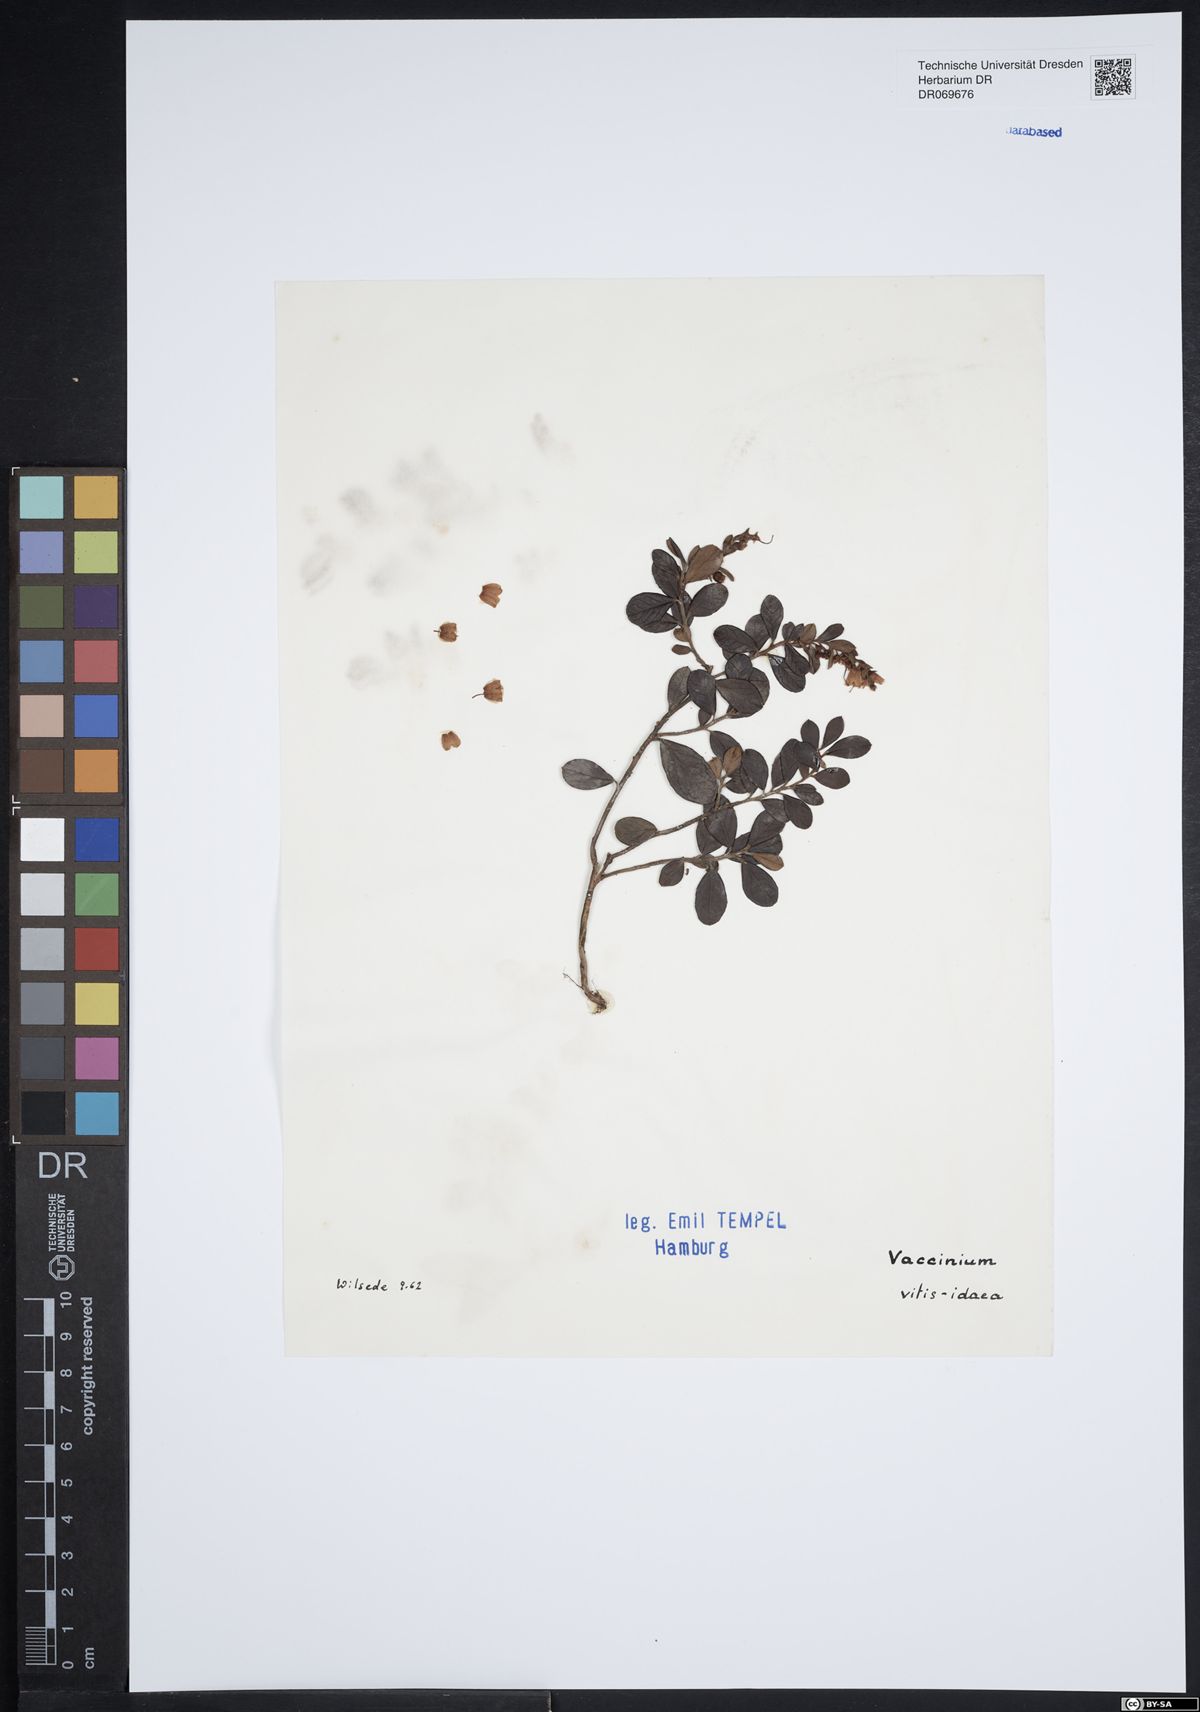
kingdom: Plantae
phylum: Tracheophyta
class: Magnoliopsida
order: Ericales
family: Ericaceae
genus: Vaccinium
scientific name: Vaccinium vitis-idaea
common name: Cowberry
